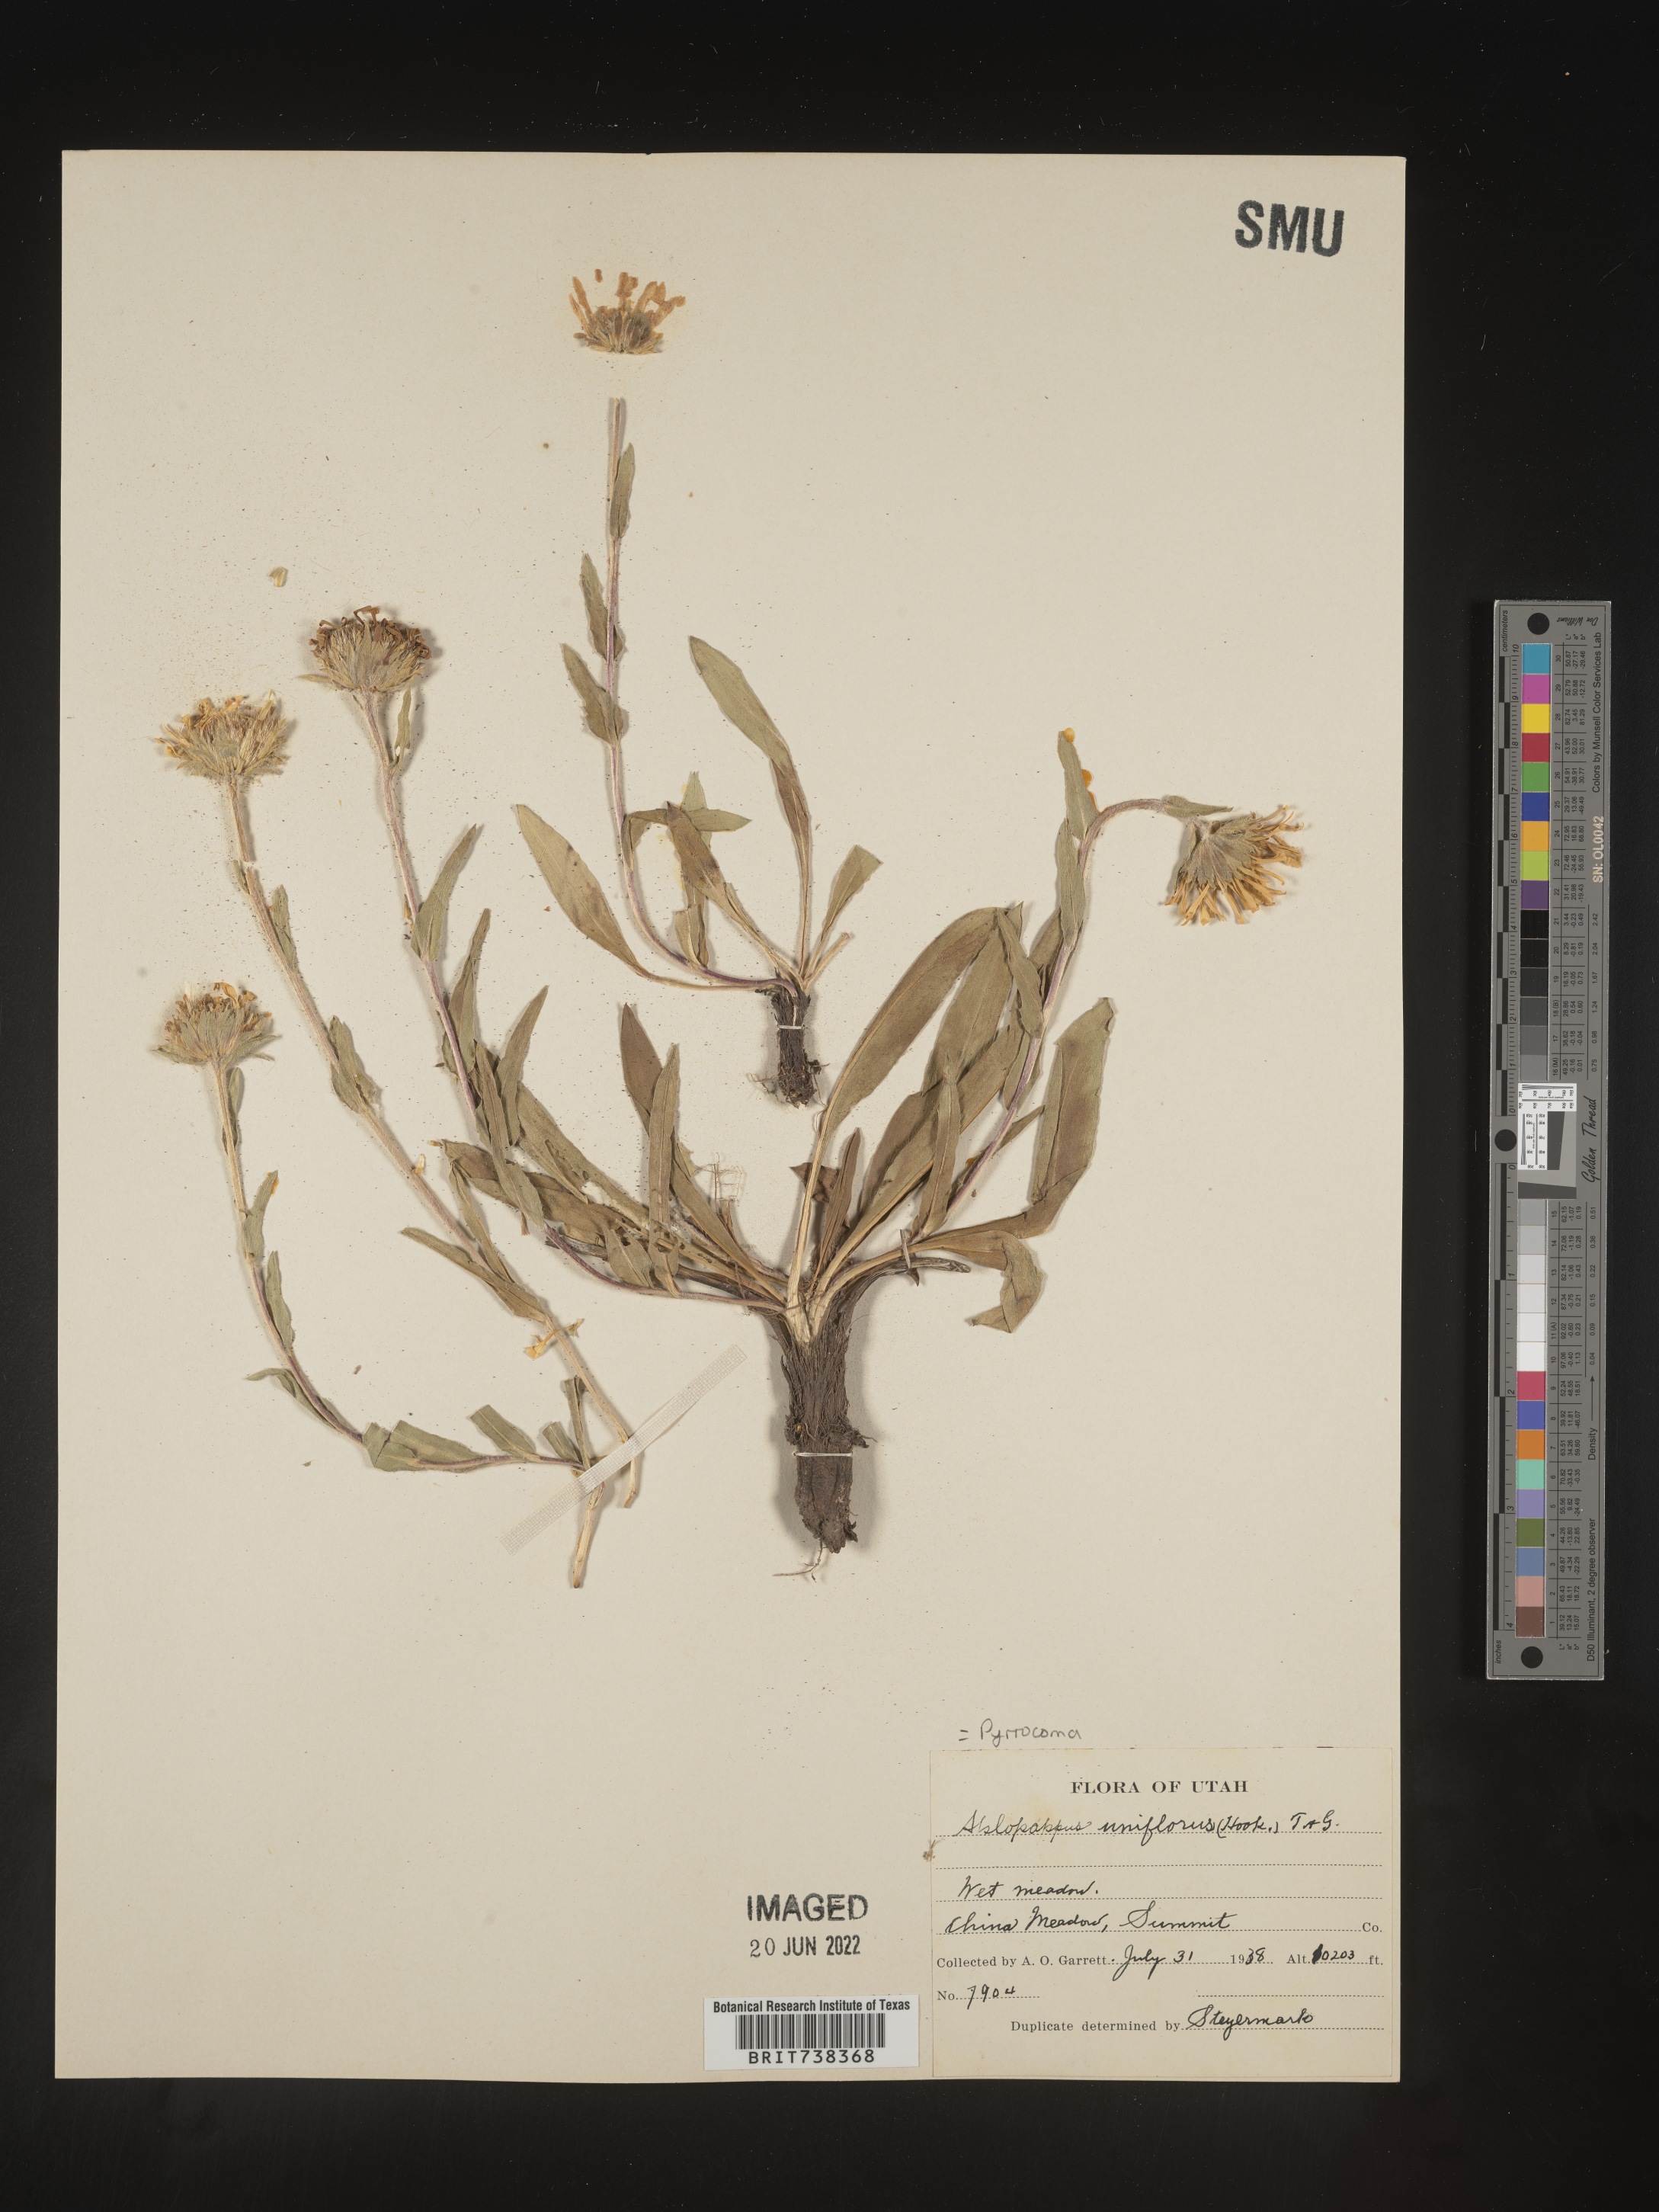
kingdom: Plantae
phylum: Tracheophyta
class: Magnoliopsida
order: Asterales
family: Asteraceae
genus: Pyrrocoma
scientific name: Pyrrocoma uniflora
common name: Plantain goldenweed
